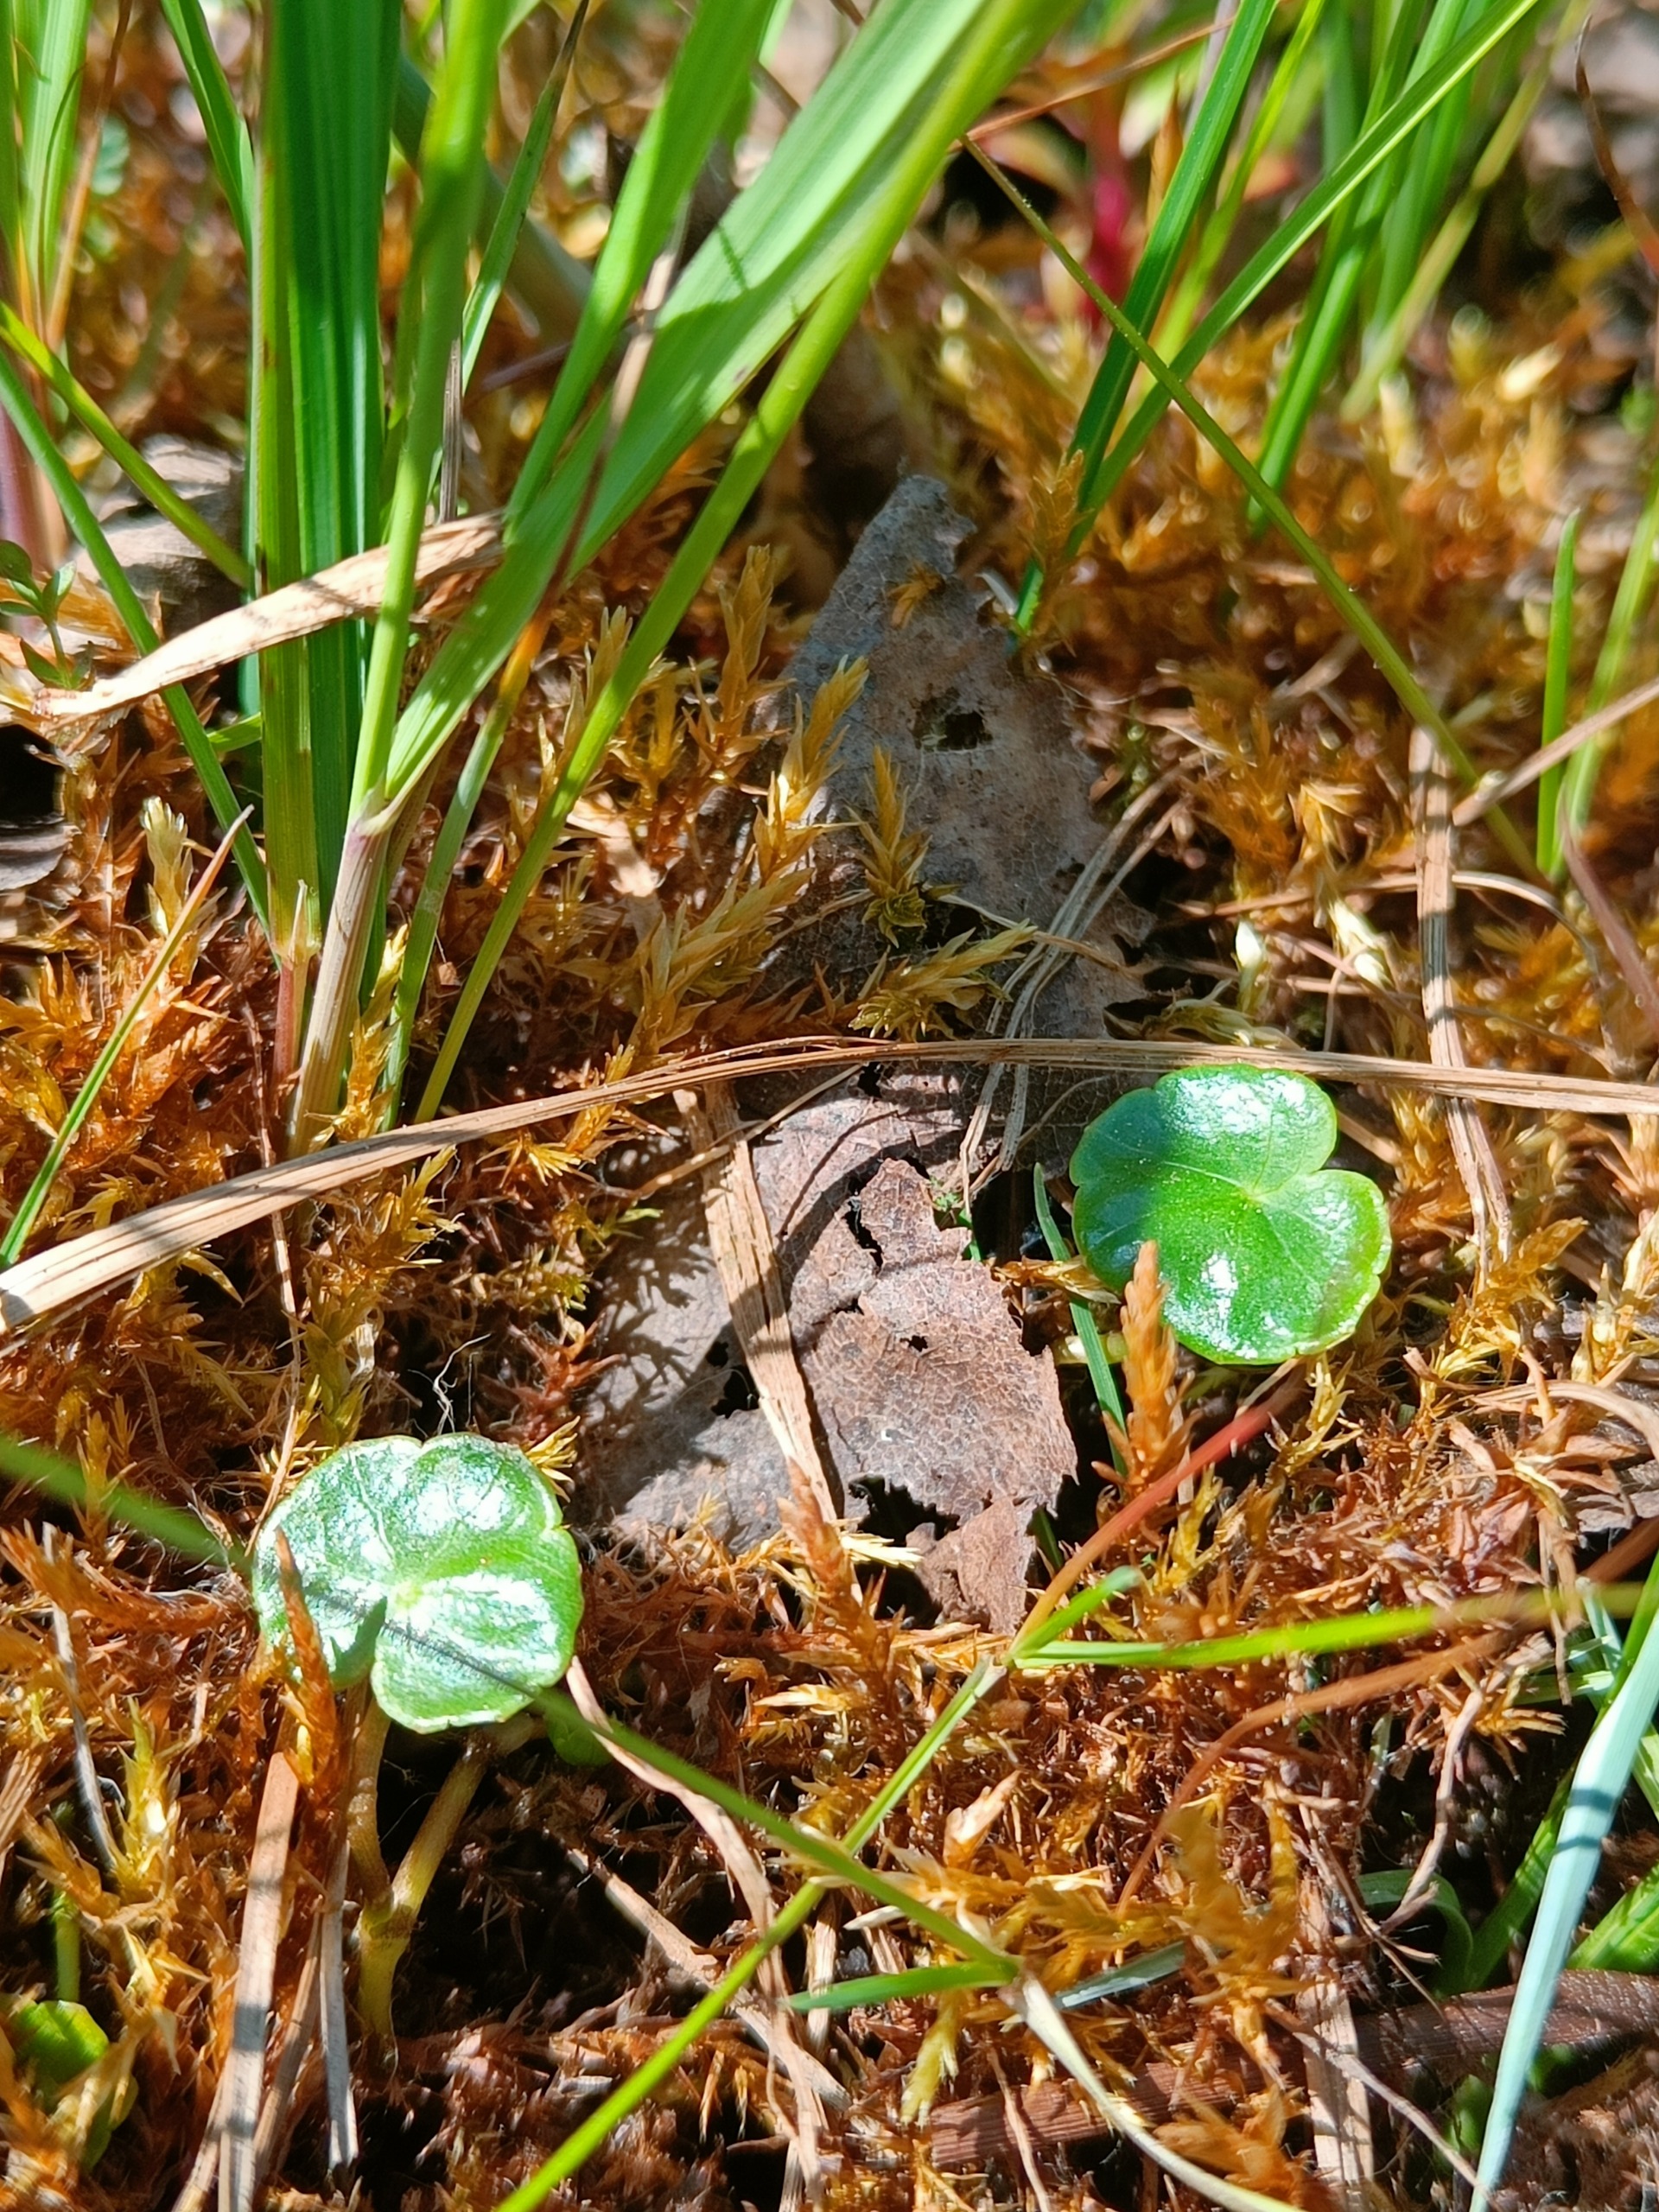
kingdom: Plantae
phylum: Tracheophyta
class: Magnoliopsida
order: Apiales
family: Araliaceae
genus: Hydrocotyle
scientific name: Hydrocotyle vulgaris
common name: Vandnavle
